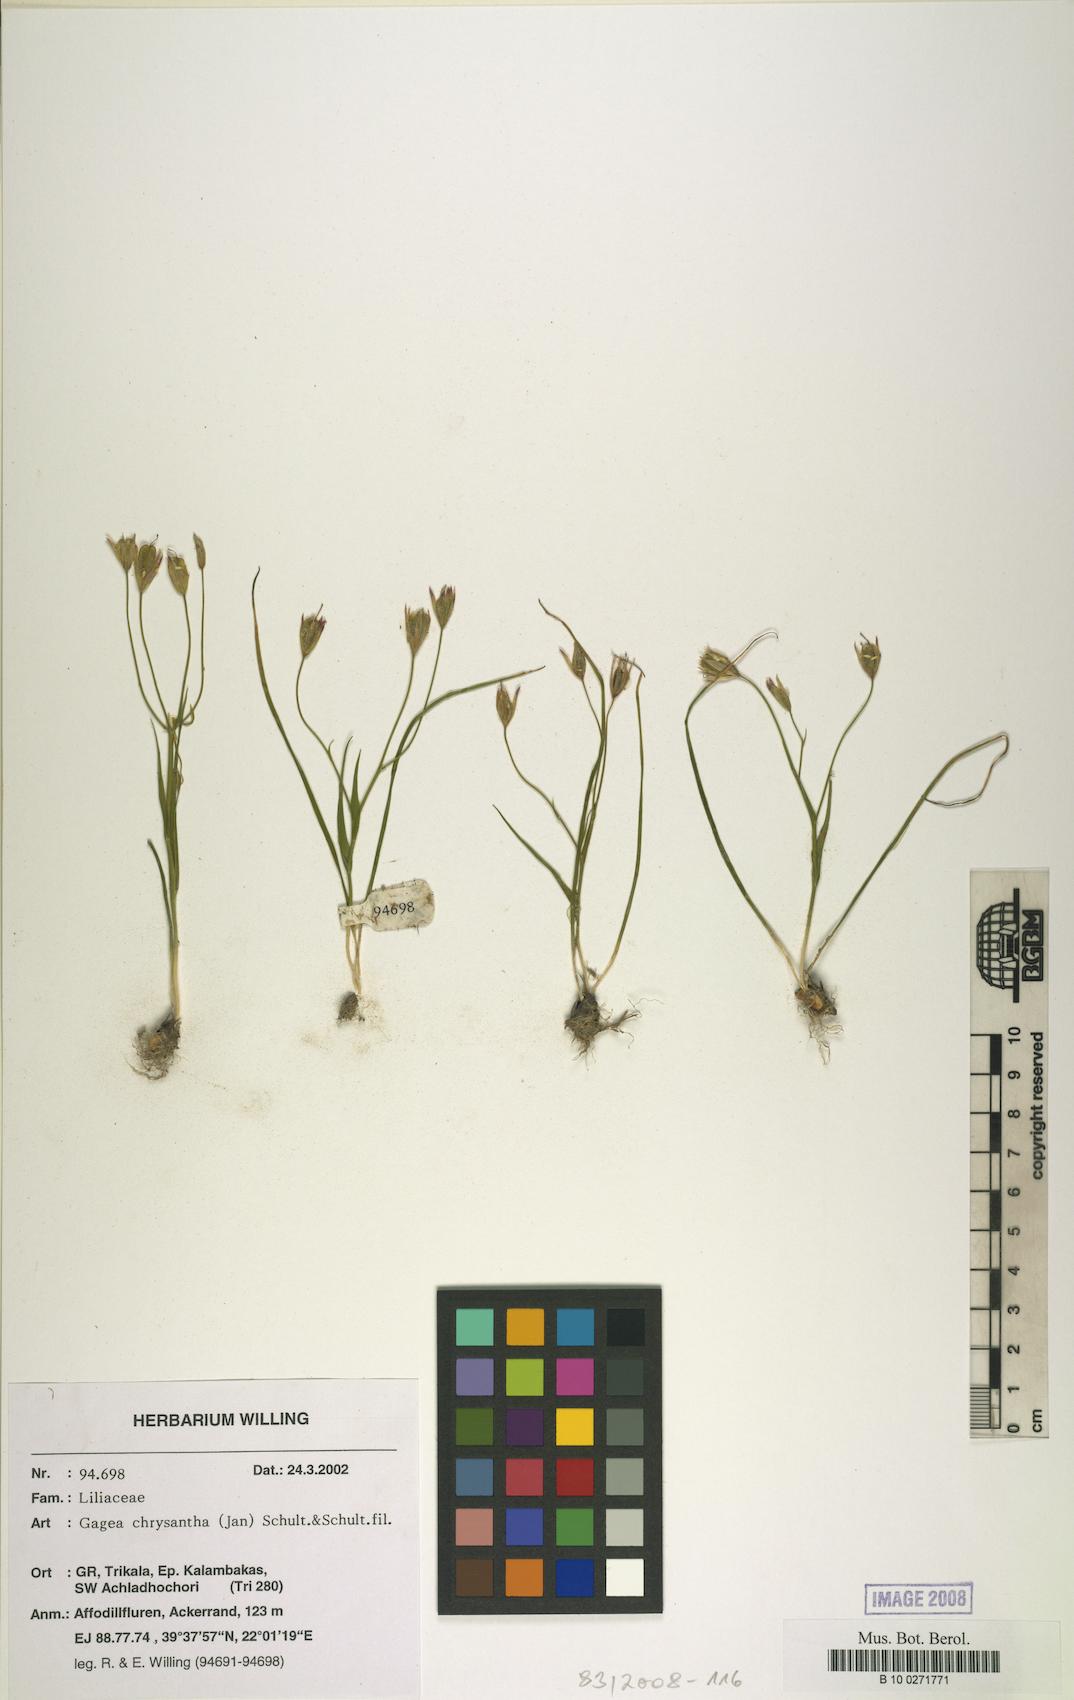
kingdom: Plantae
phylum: Tracheophyta
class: Liliopsida
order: Liliales
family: Liliaceae
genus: Gagea
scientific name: Gagea chrysantha
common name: Golden gagea
